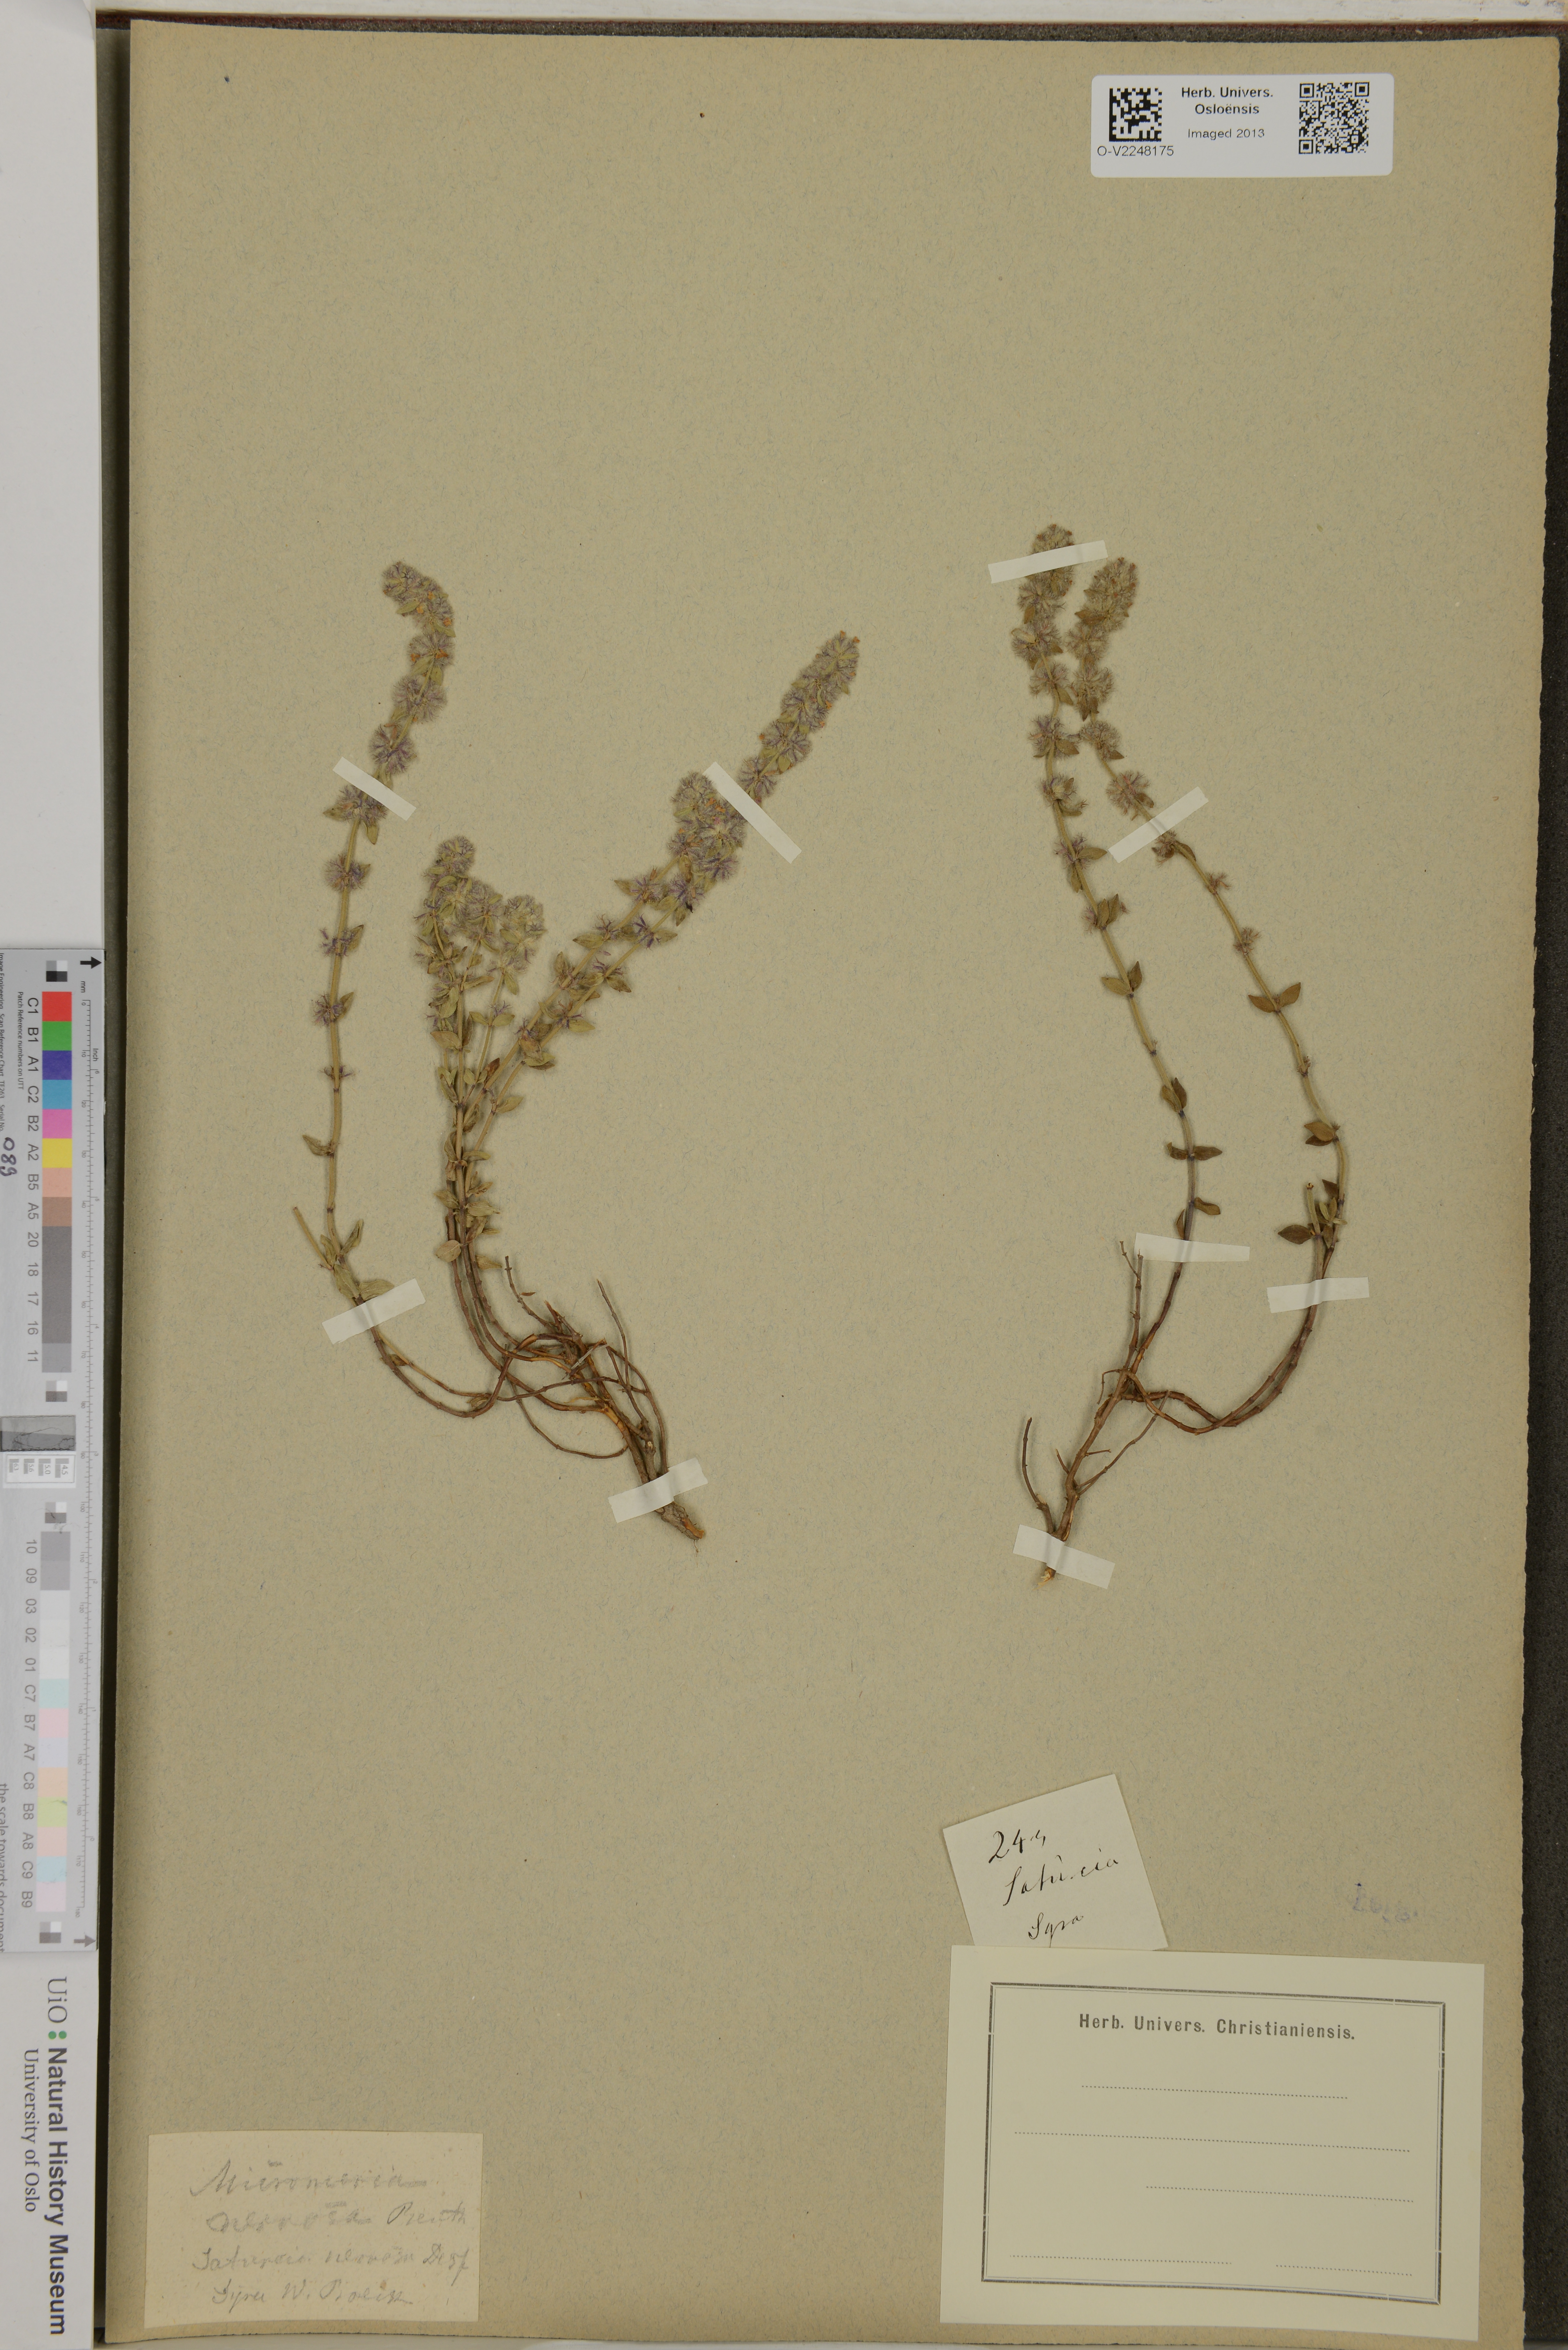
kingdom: Plantae
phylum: Tracheophyta
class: Magnoliopsida
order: Lamiales
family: Lamiaceae
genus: Micromeria
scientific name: Micromeria nervosa
